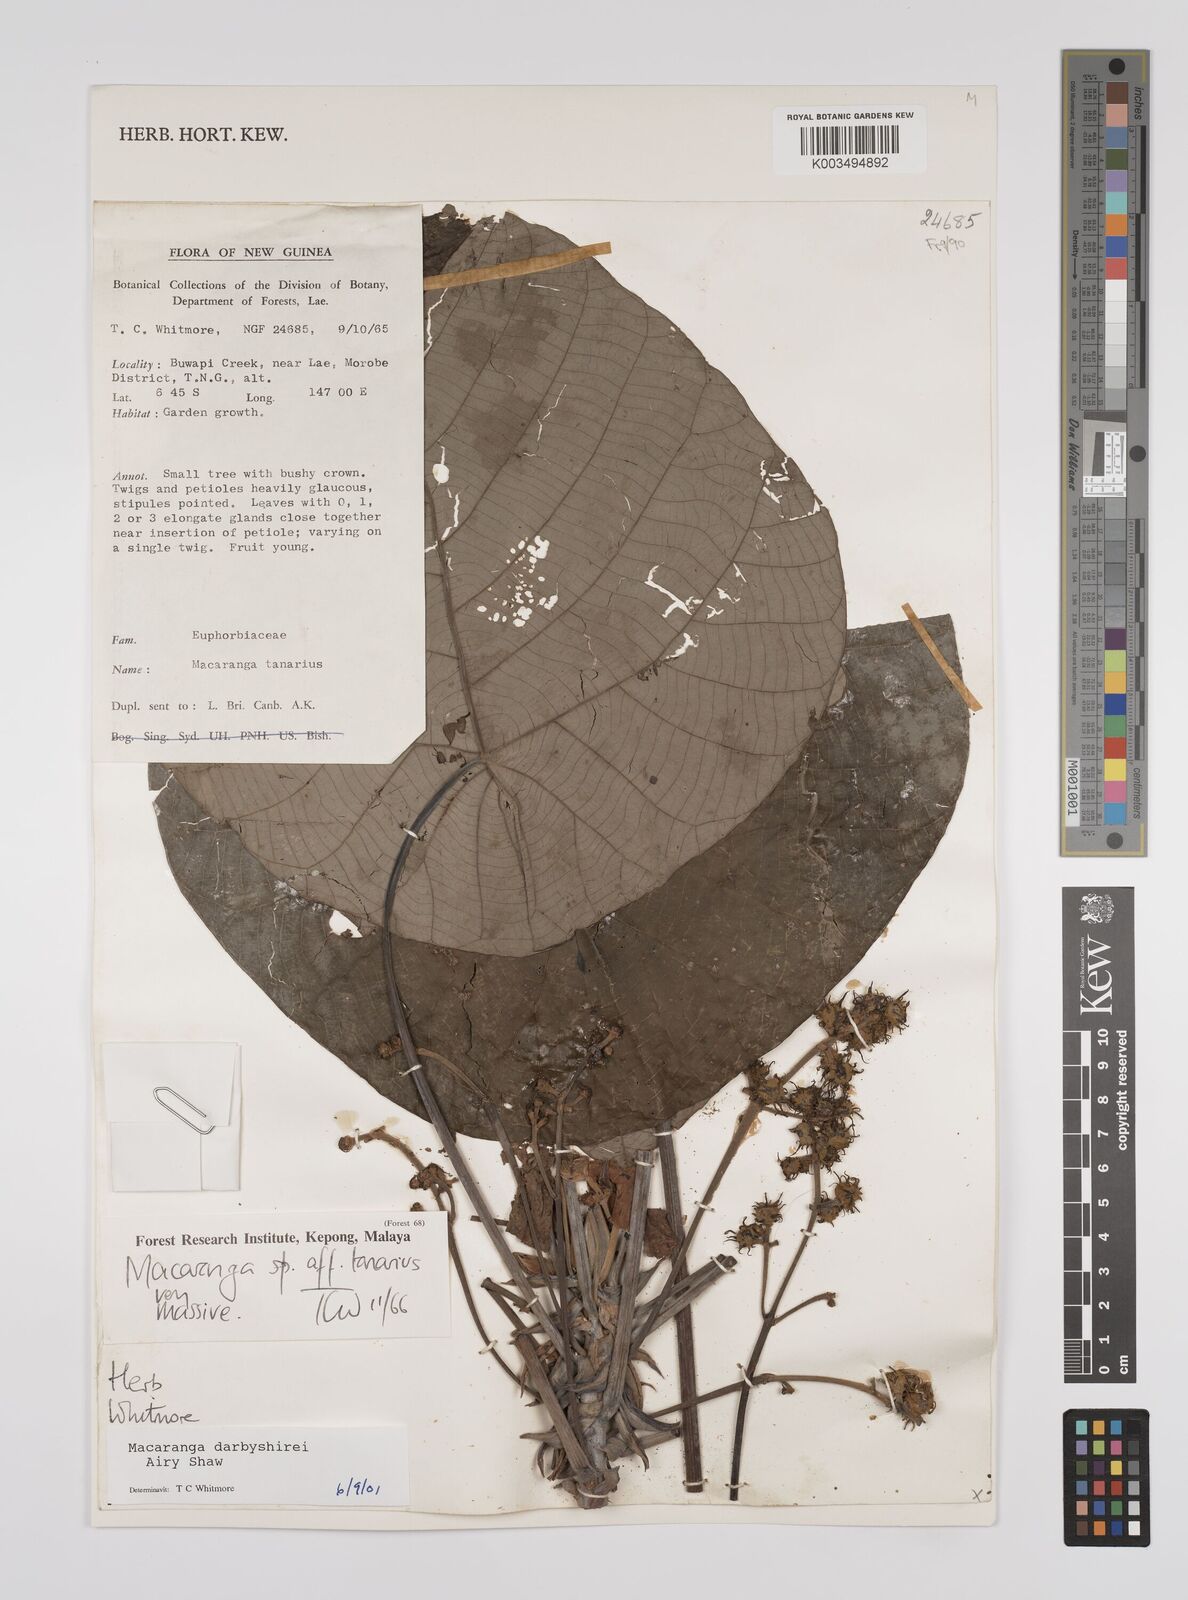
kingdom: Plantae
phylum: Tracheophyta
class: Magnoliopsida
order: Malpighiales
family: Euphorbiaceae
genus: Macaranga
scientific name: Macaranga darbyshirei
